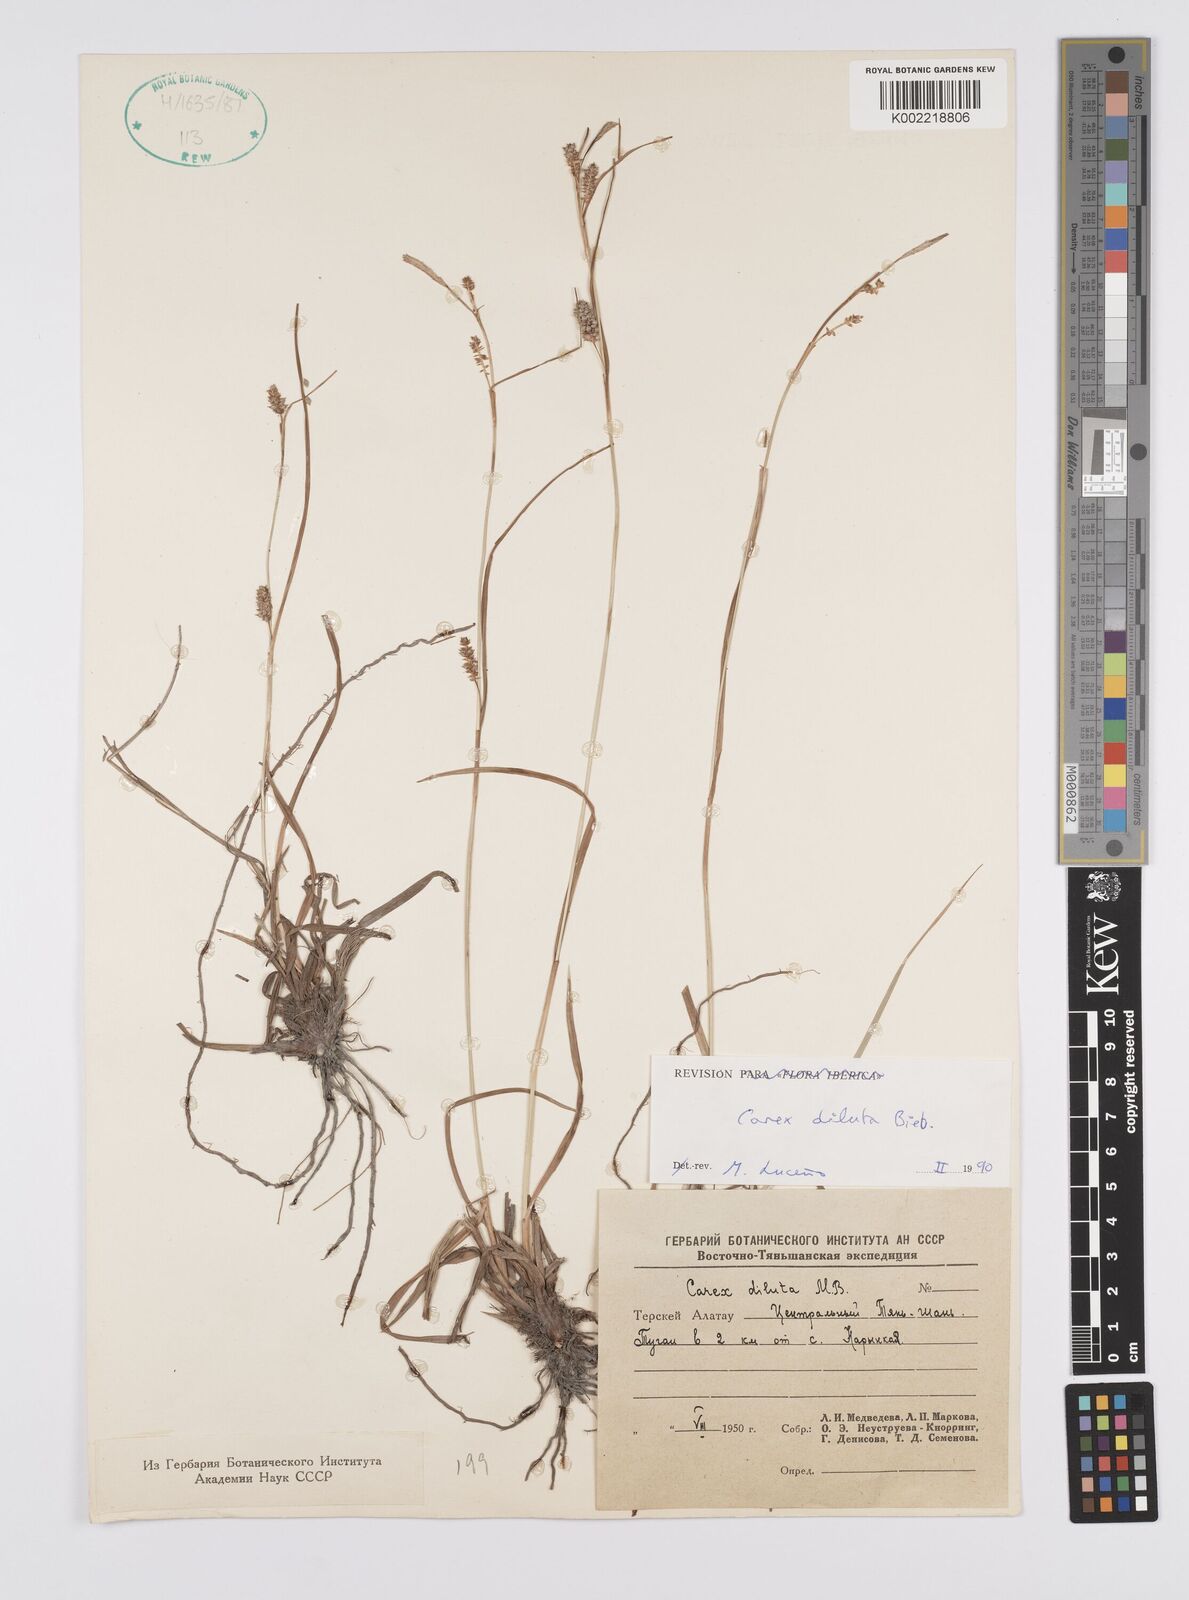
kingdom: Plantae
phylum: Tracheophyta
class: Liliopsida
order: Poales
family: Cyperaceae
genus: Carex
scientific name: Carex diluta
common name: Sedge
